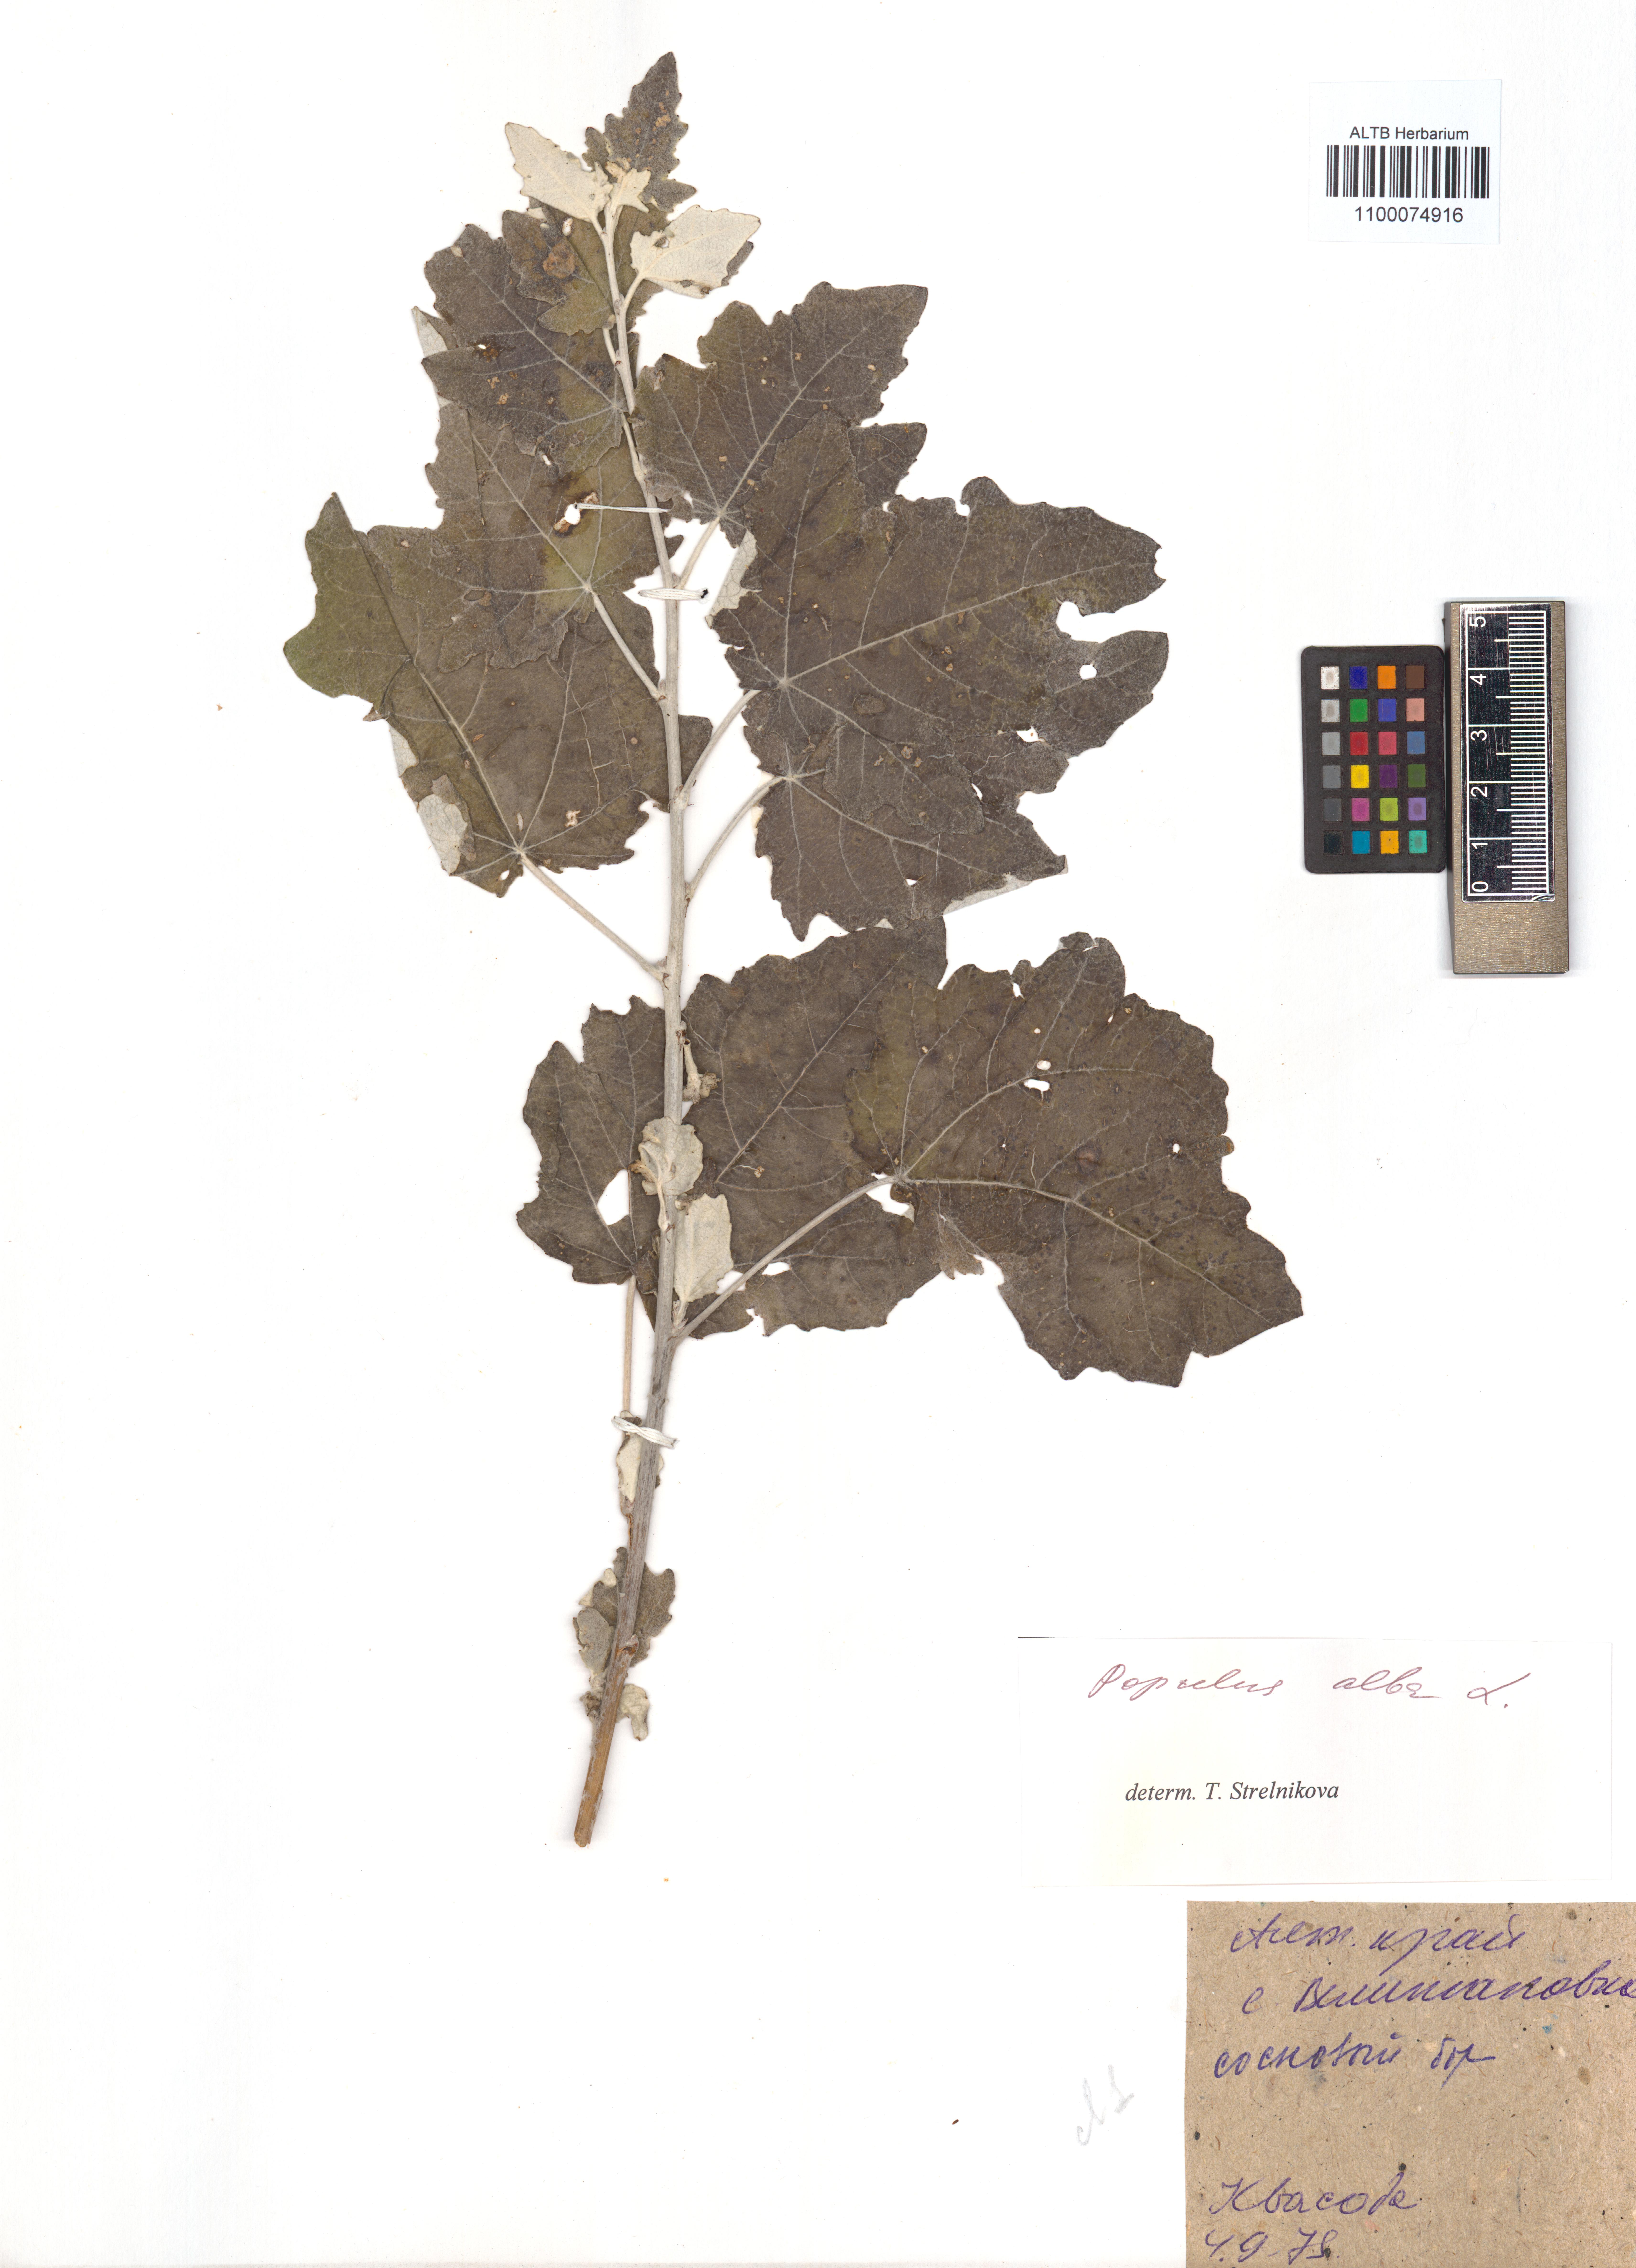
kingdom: Plantae
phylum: Tracheophyta
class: Magnoliopsida
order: Malpighiales
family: Salicaceae
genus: Populus
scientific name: Populus alba
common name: White poplar
